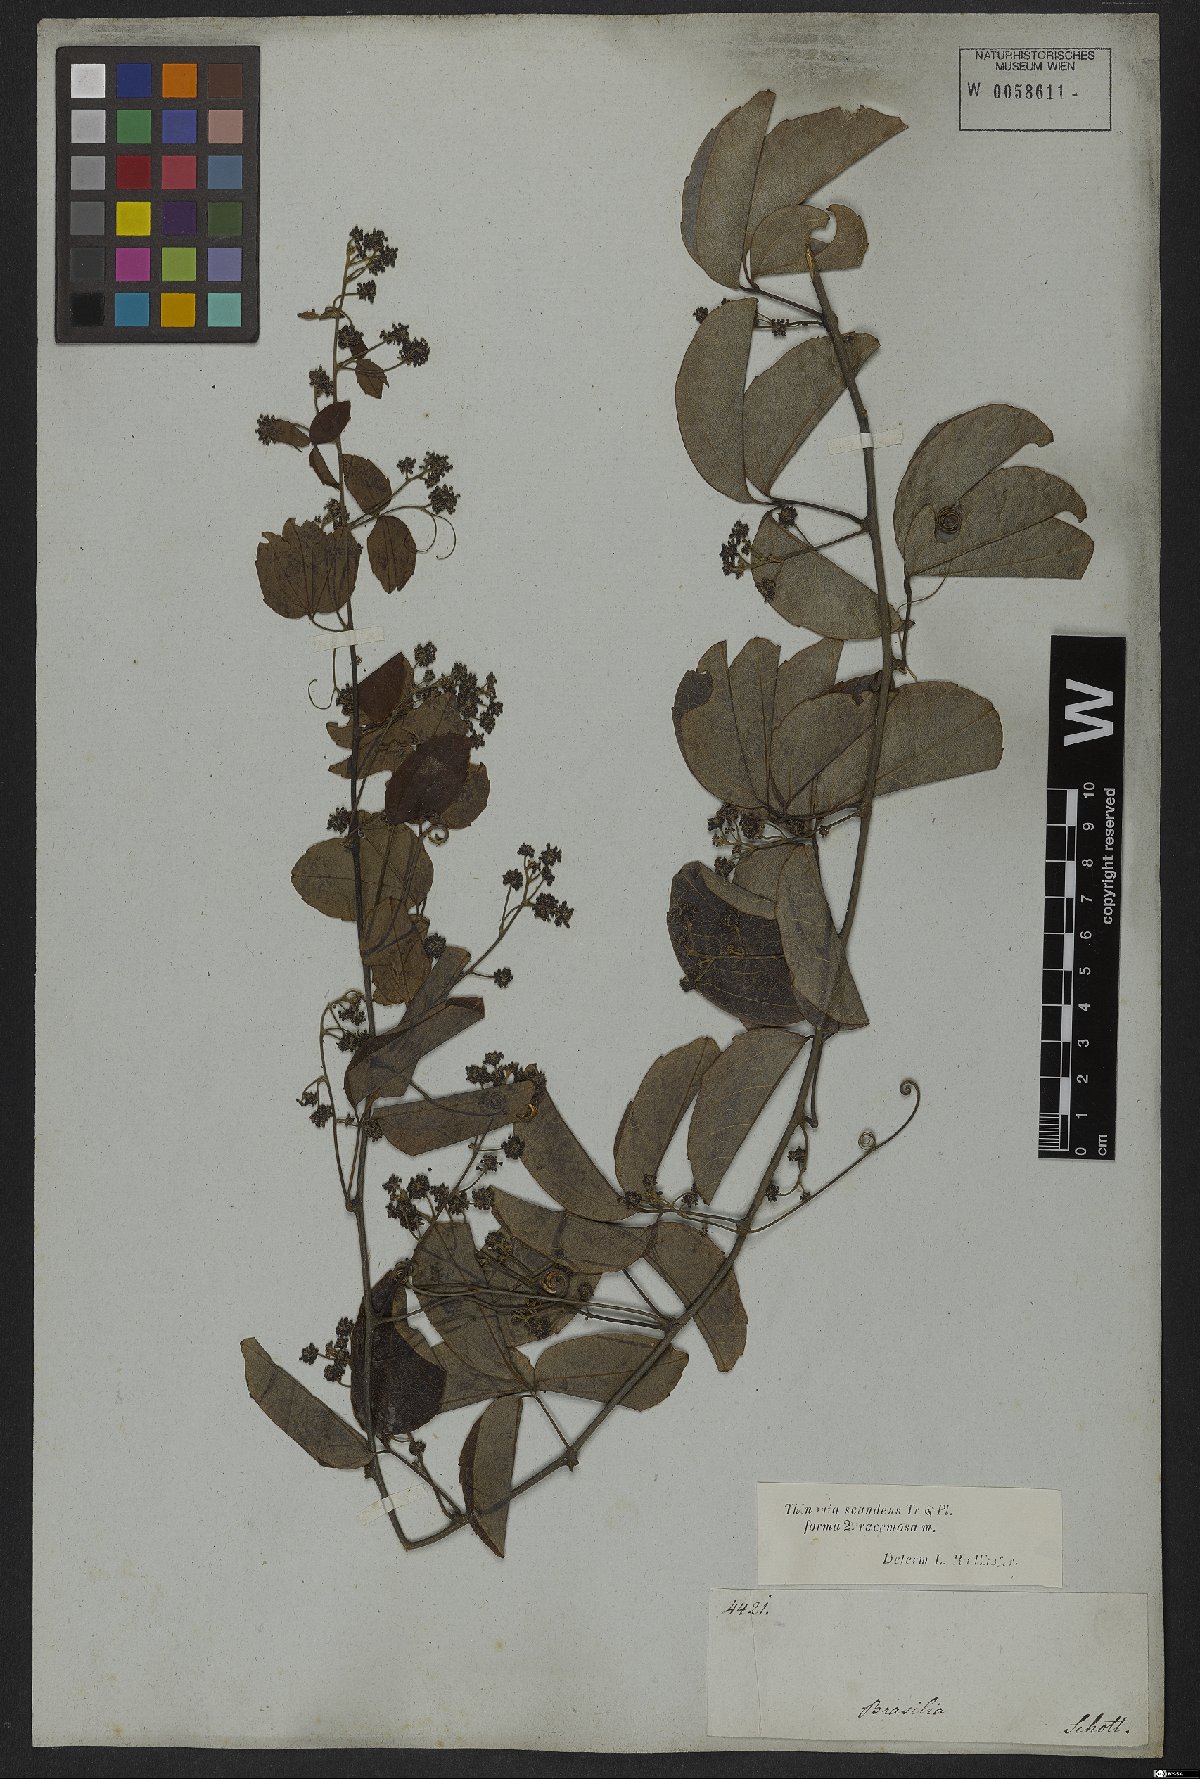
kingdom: Plantae
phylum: Tracheophyta
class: Magnoliopsida
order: Sapindales
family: Sapindaceae
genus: Thinouia
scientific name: Thinouia scandens
